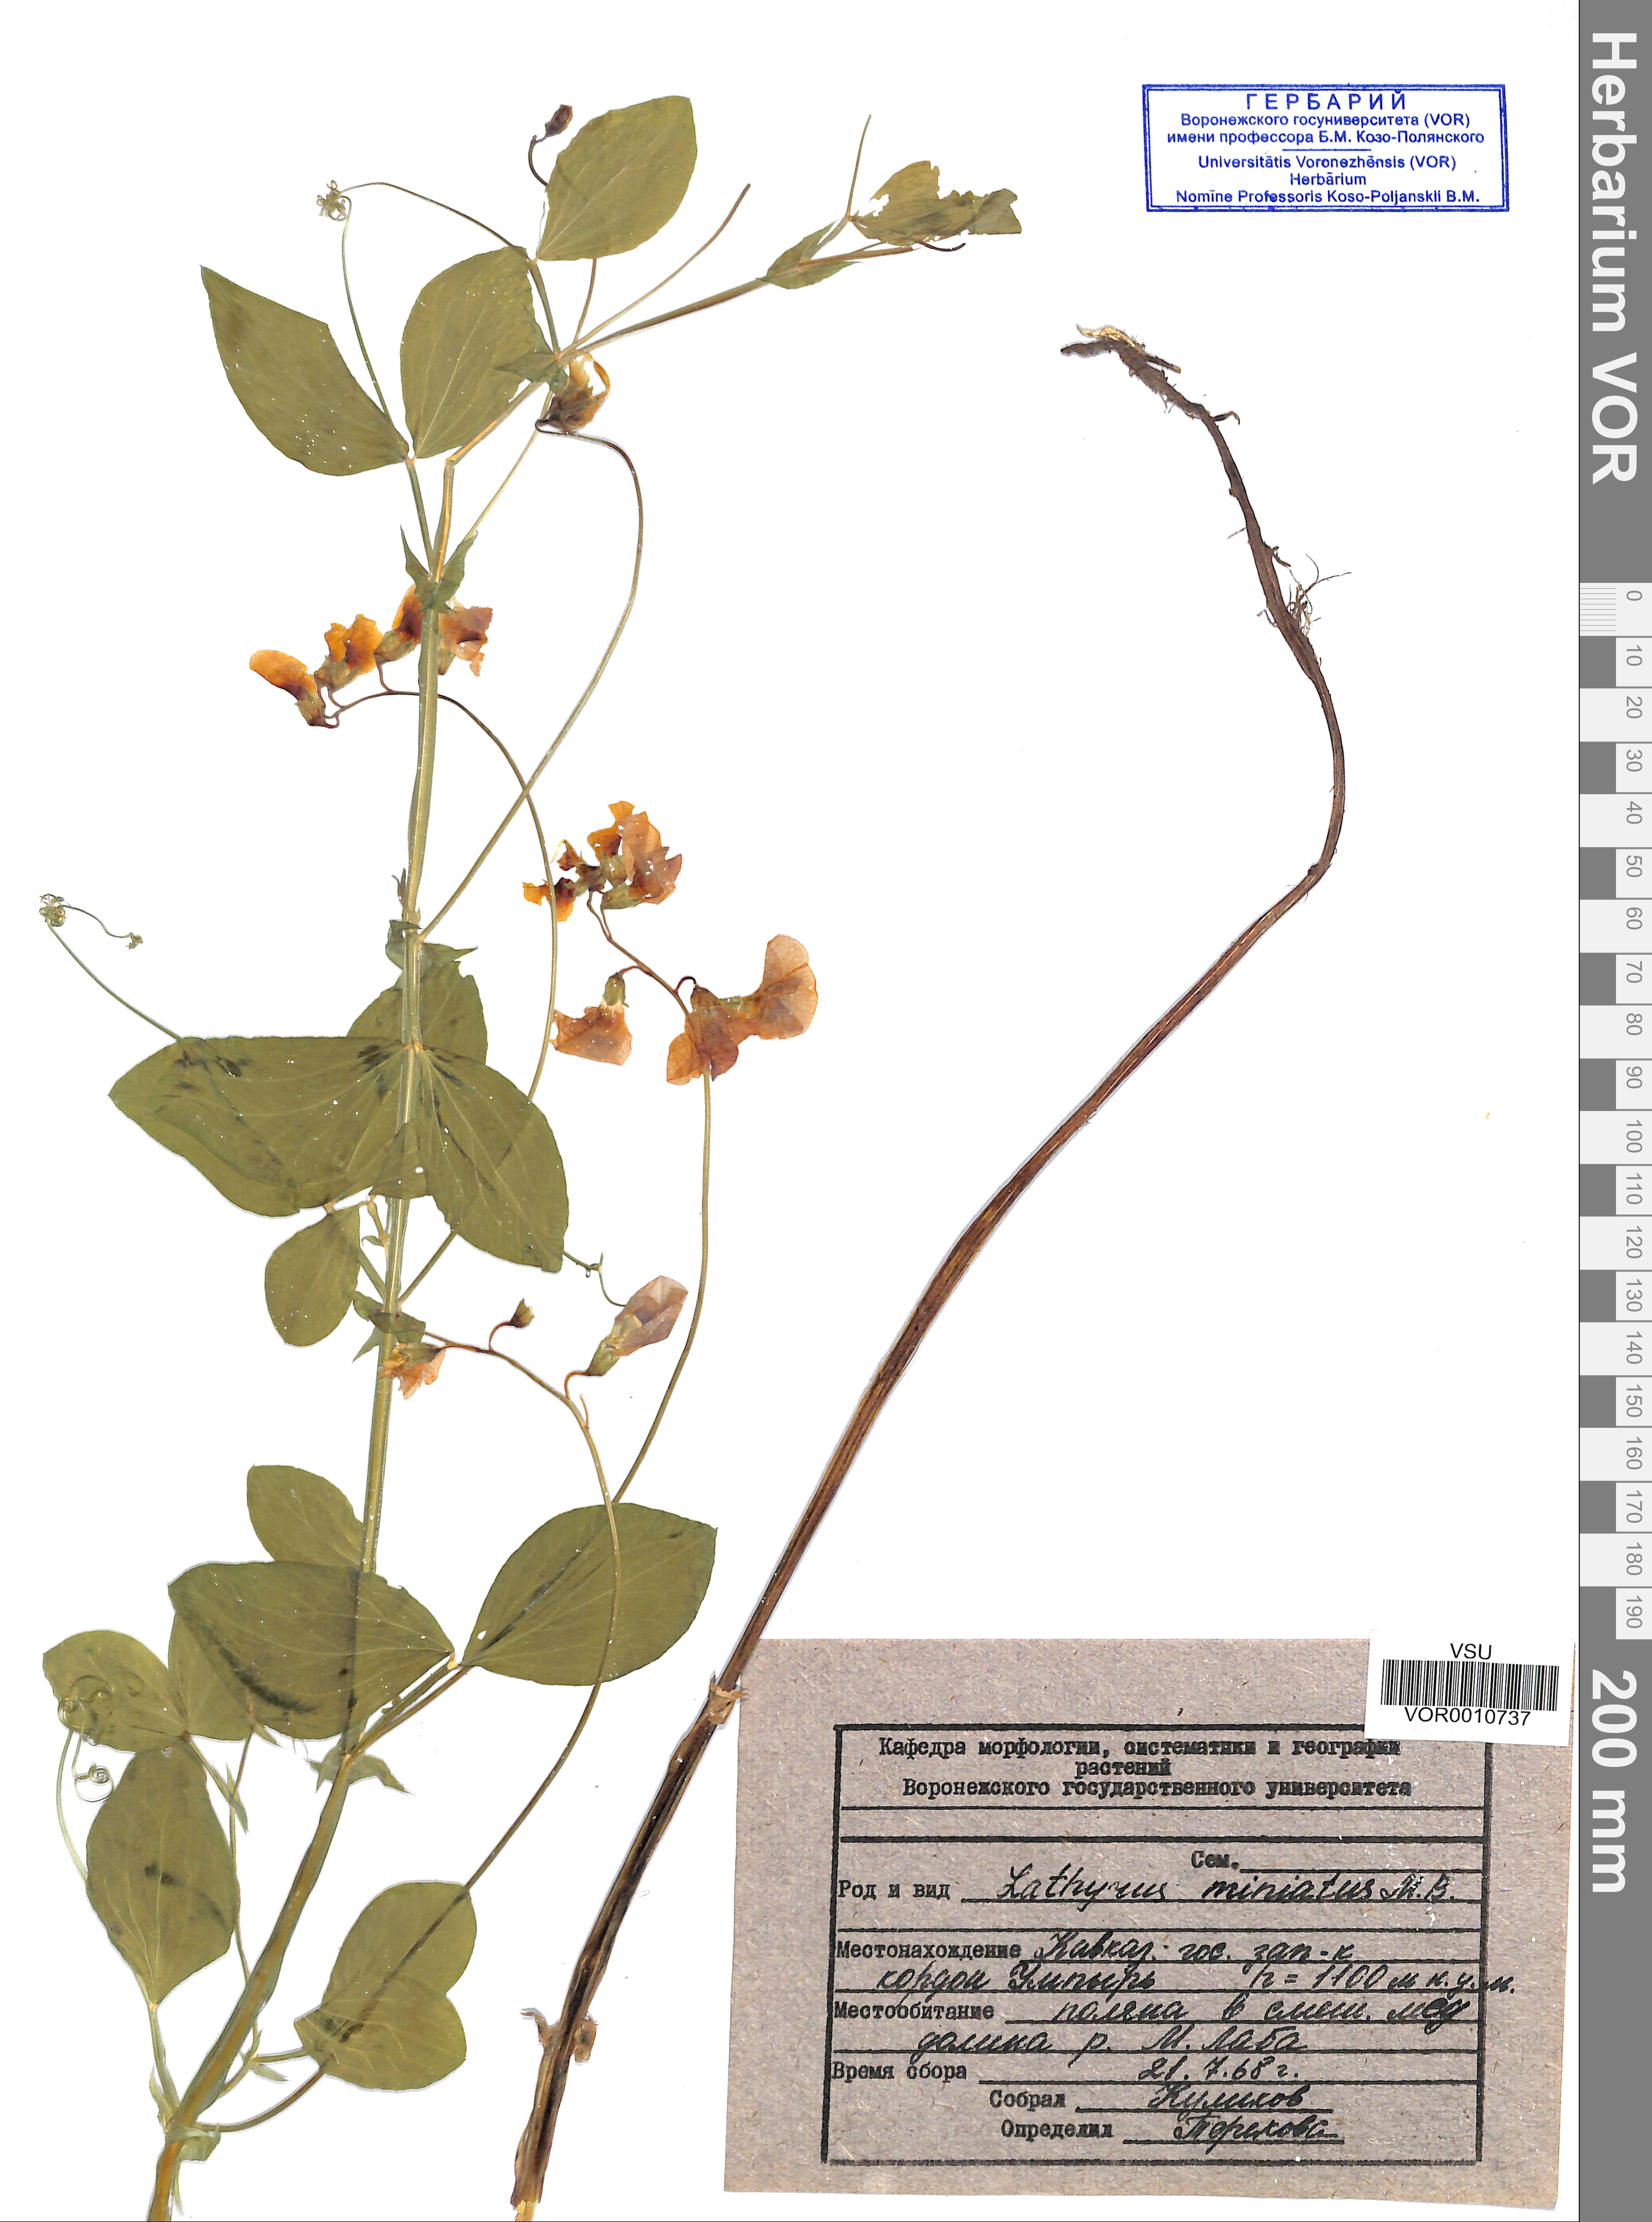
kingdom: Plantae
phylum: Tracheophyta
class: Magnoliopsida
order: Fabales
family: Fabaceae
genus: Lathyrus
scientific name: Lathyrus miniatus
